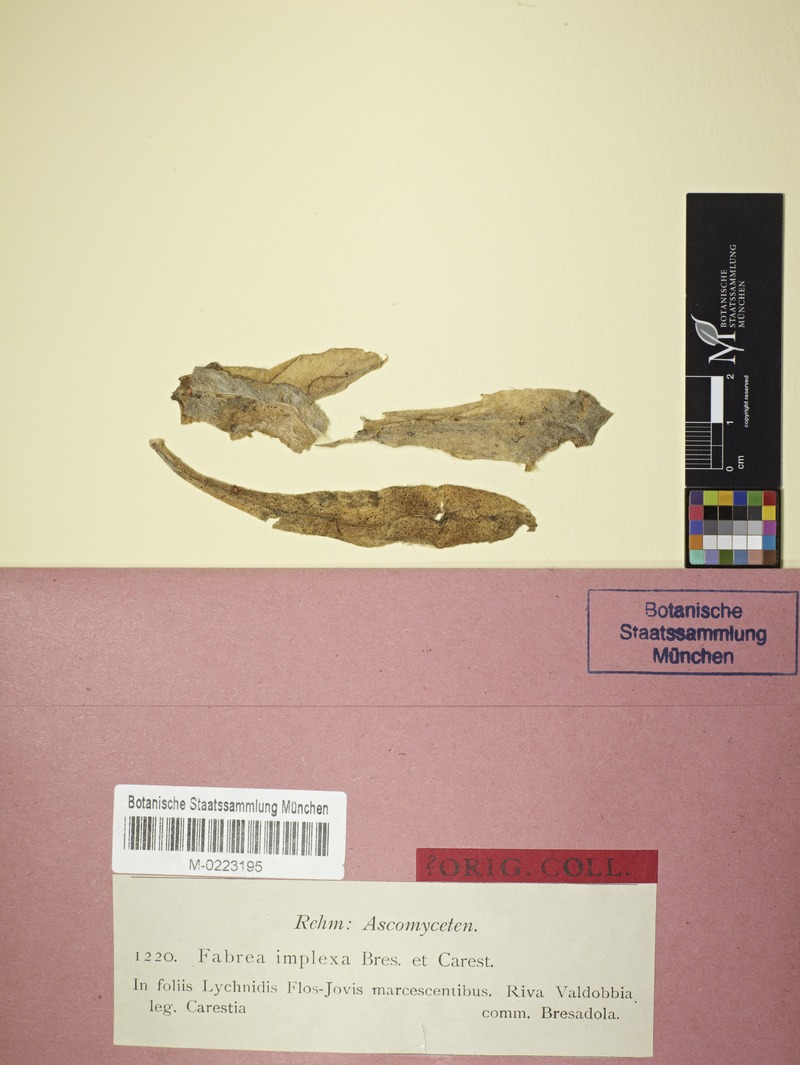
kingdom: Fungi
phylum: Ascomycota
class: Leotiomycetes
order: Helotiales
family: Drepanopezizaceae
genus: Fabraea
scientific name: Fabraea implexa
